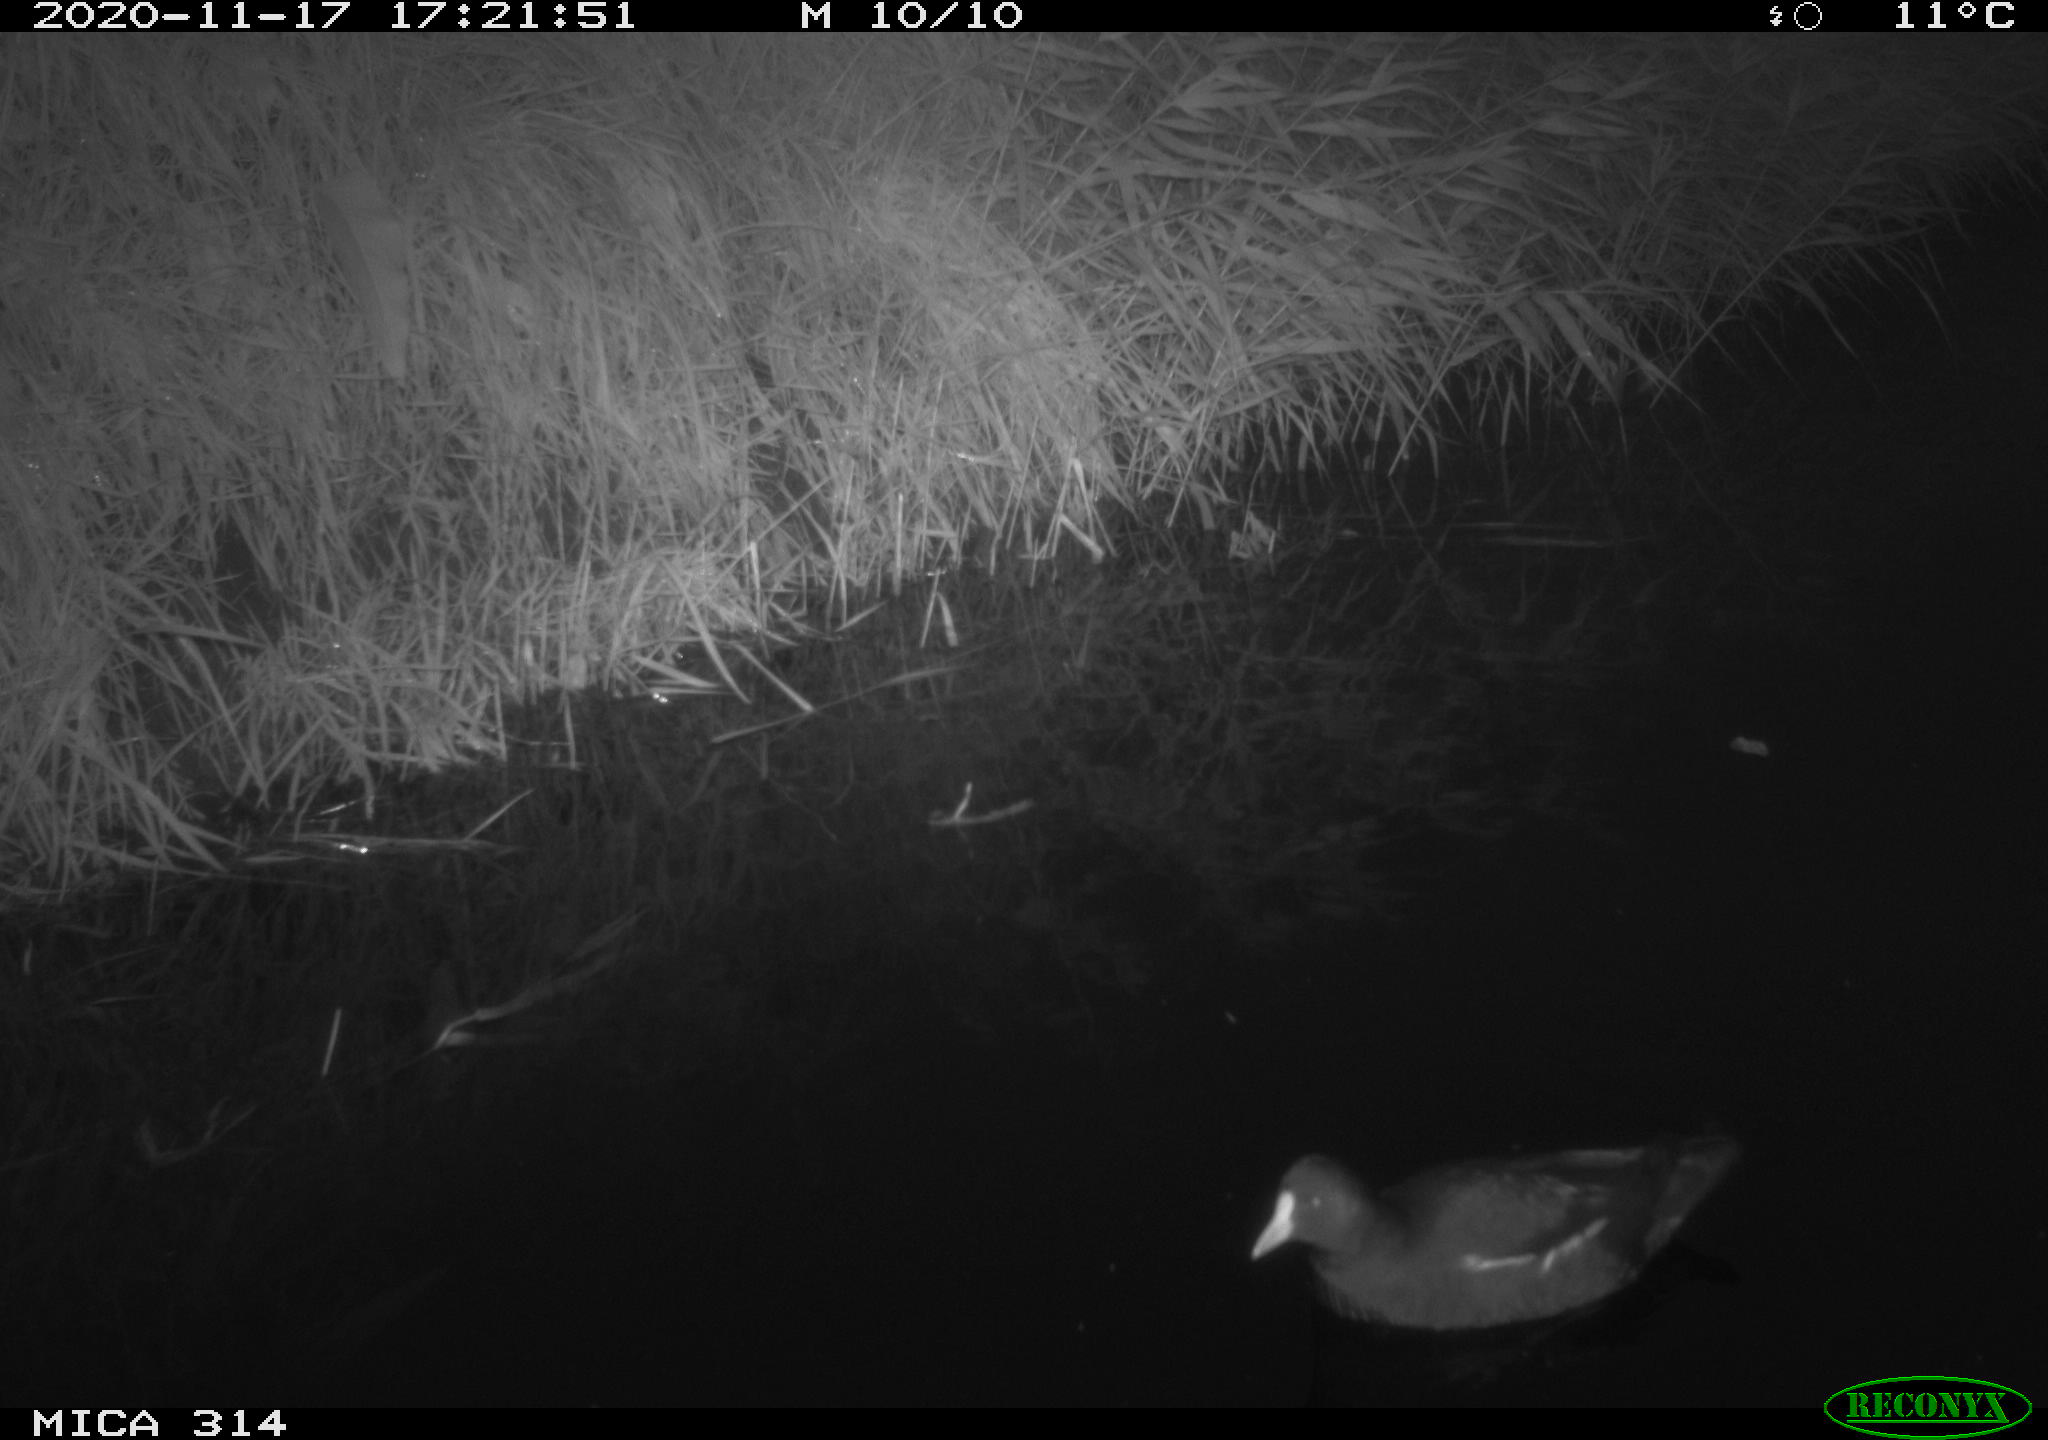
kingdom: Animalia
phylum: Chordata
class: Aves
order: Gruiformes
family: Rallidae
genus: Gallinula
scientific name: Gallinula chloropus
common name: Common moorhen
